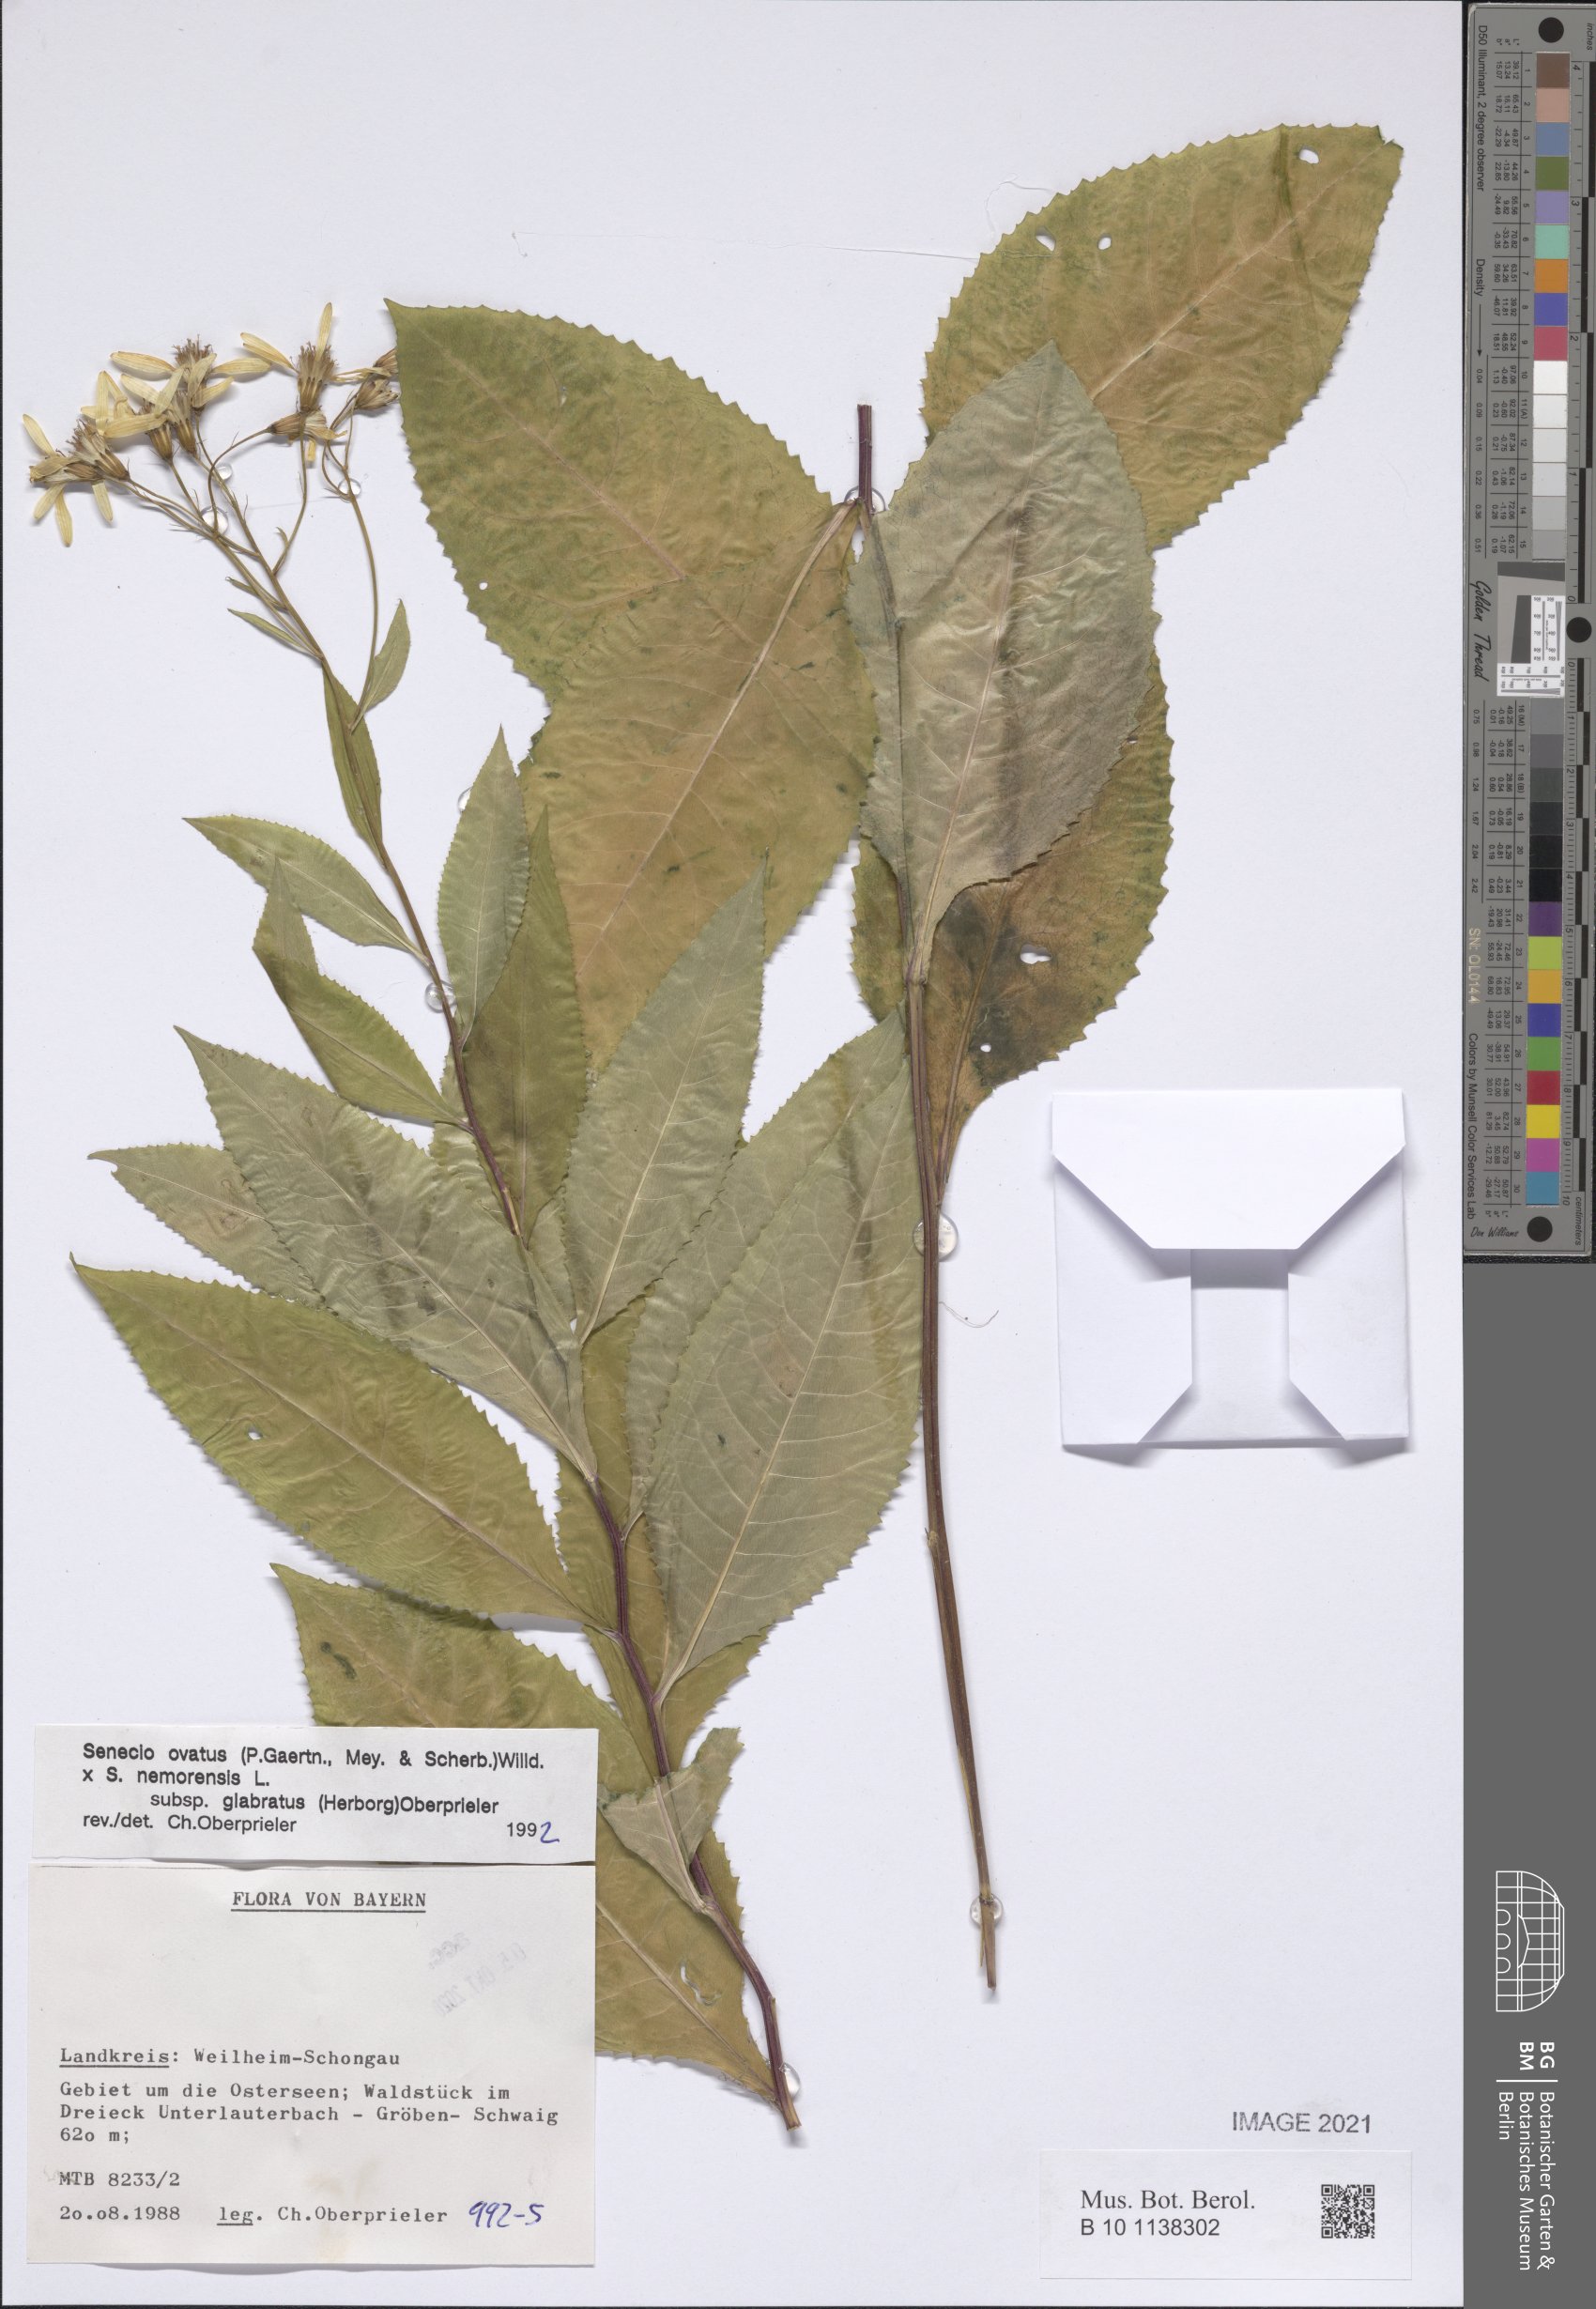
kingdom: Plantae
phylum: Tracheophyta
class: Magnoliopsida
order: Asterales
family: Asteraceae
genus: Senecio
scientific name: Senecio ovatus
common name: Wood ragwort
